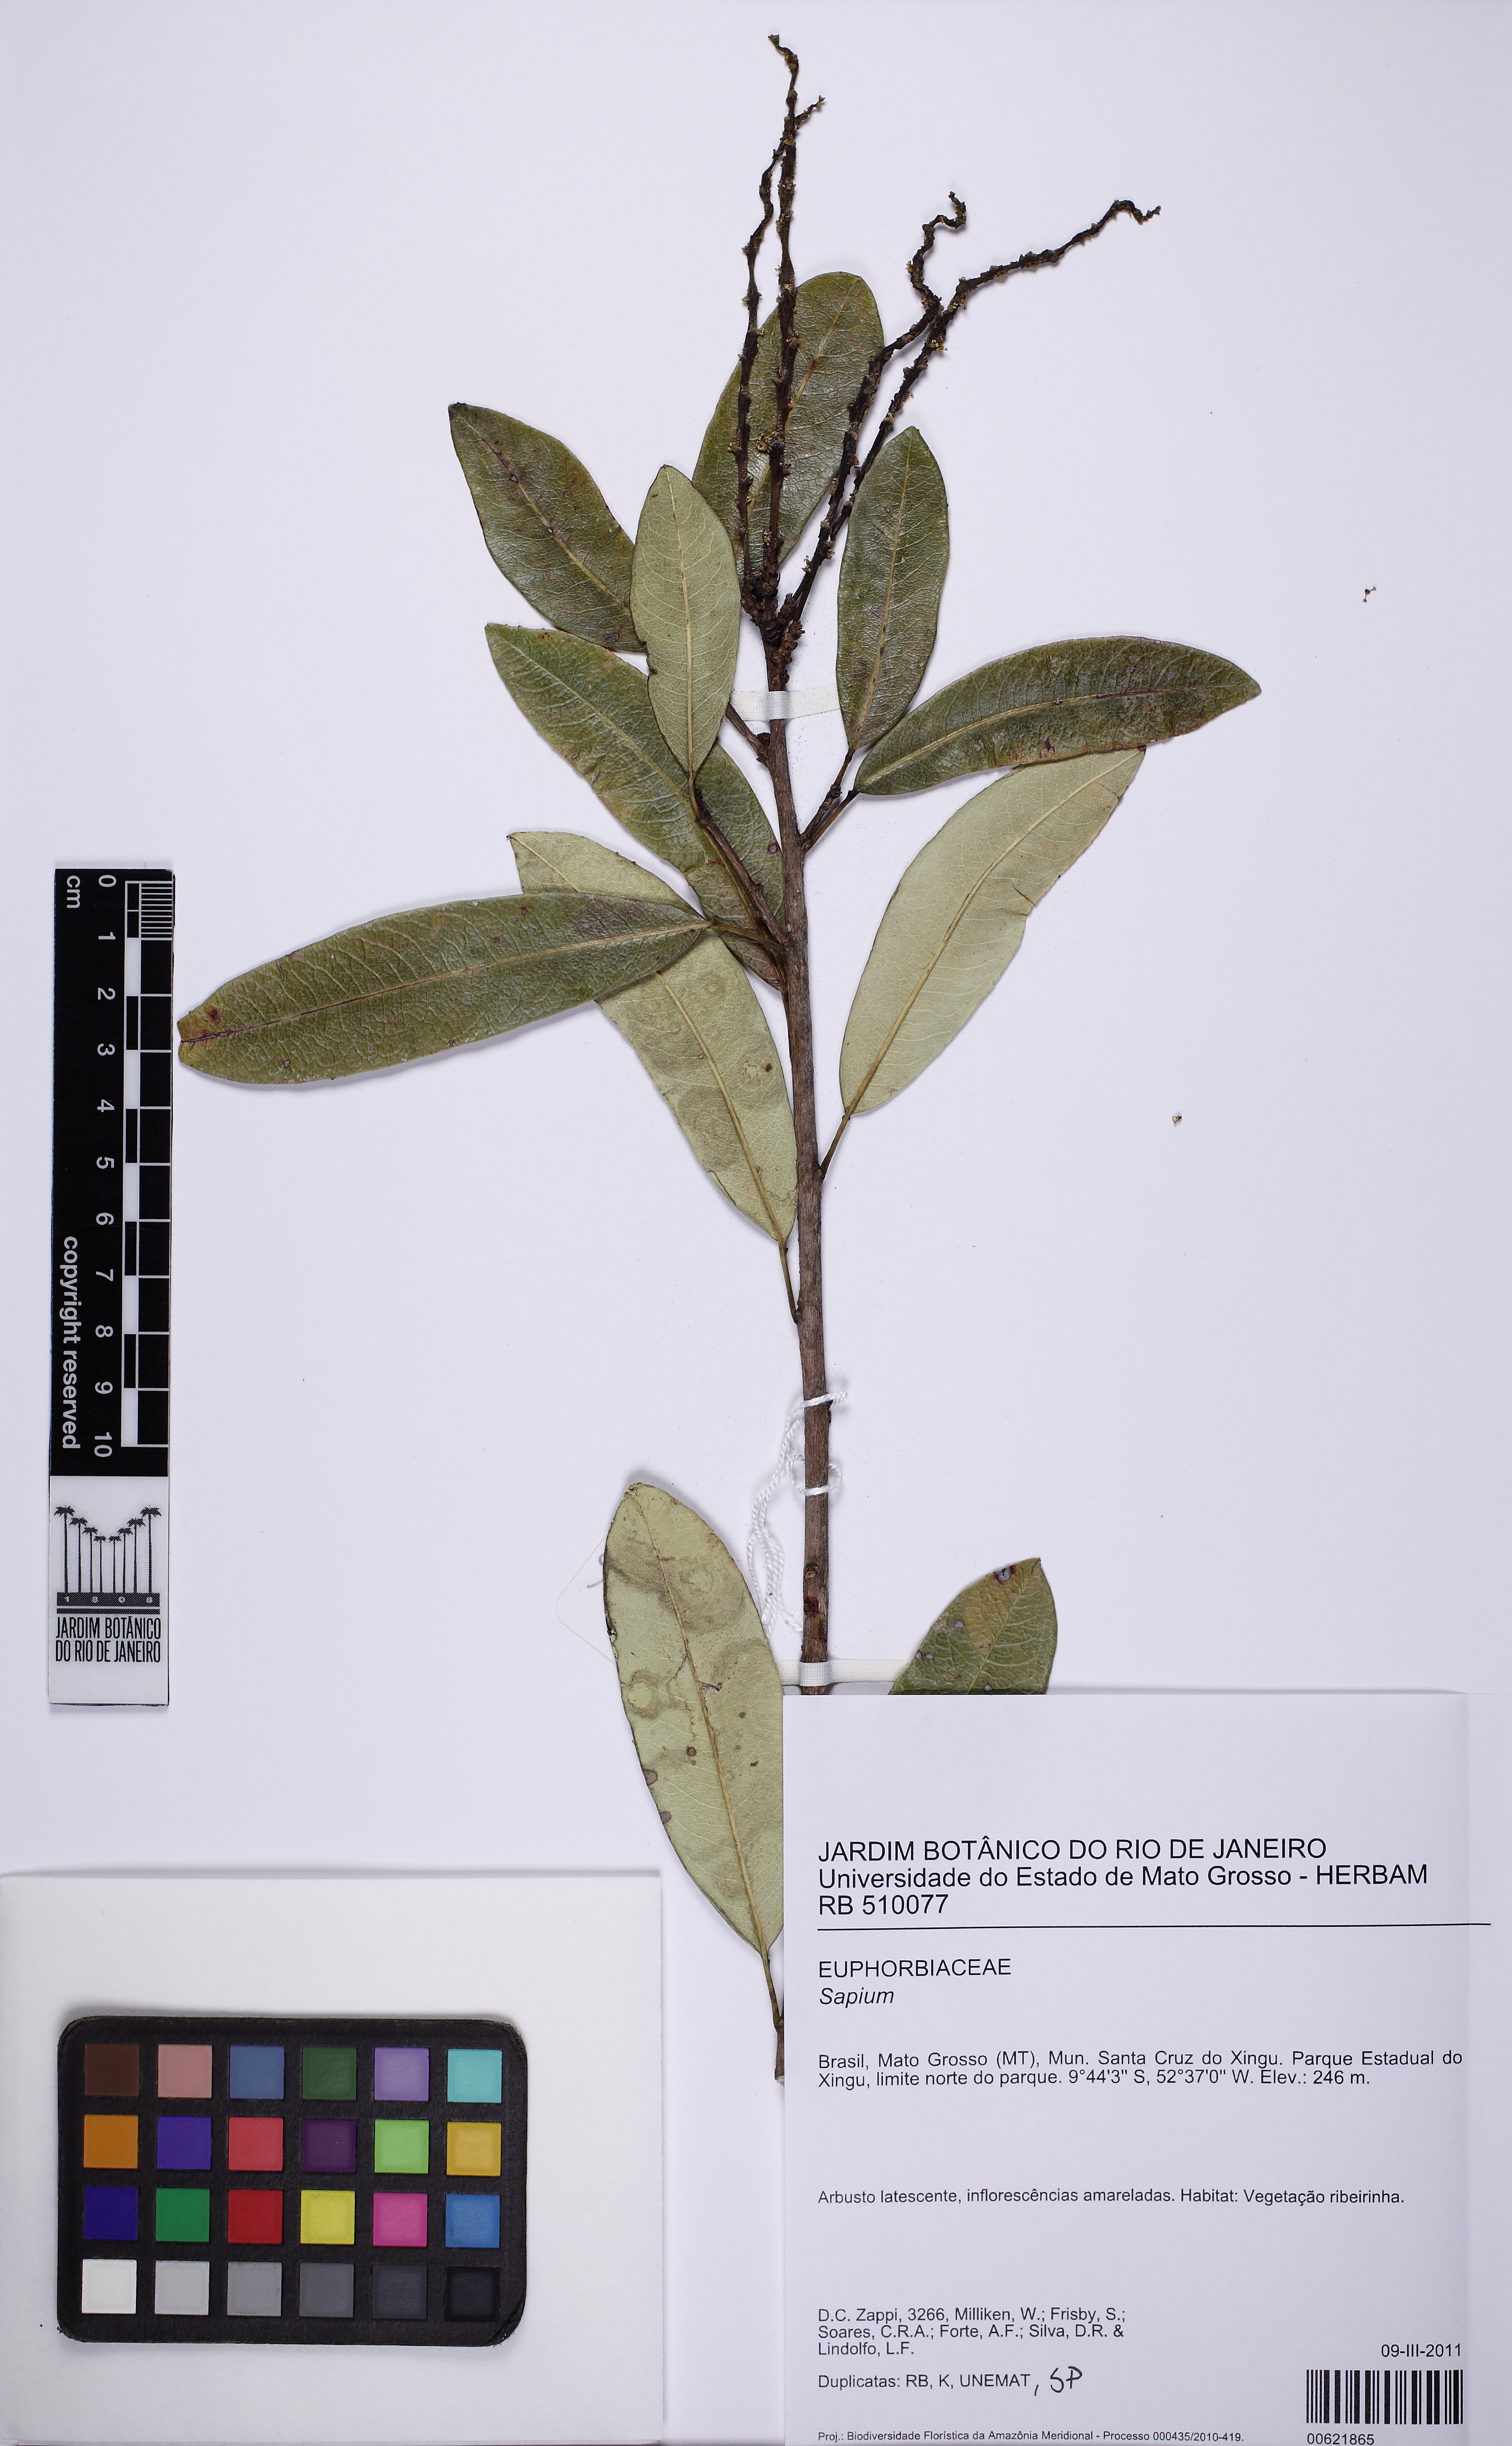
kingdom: Plantae
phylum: Tracheophyta
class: Magnoliopsida
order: Malpighiales
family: Euphorbiaceae
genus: Sapium
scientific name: Sapium pallidum
